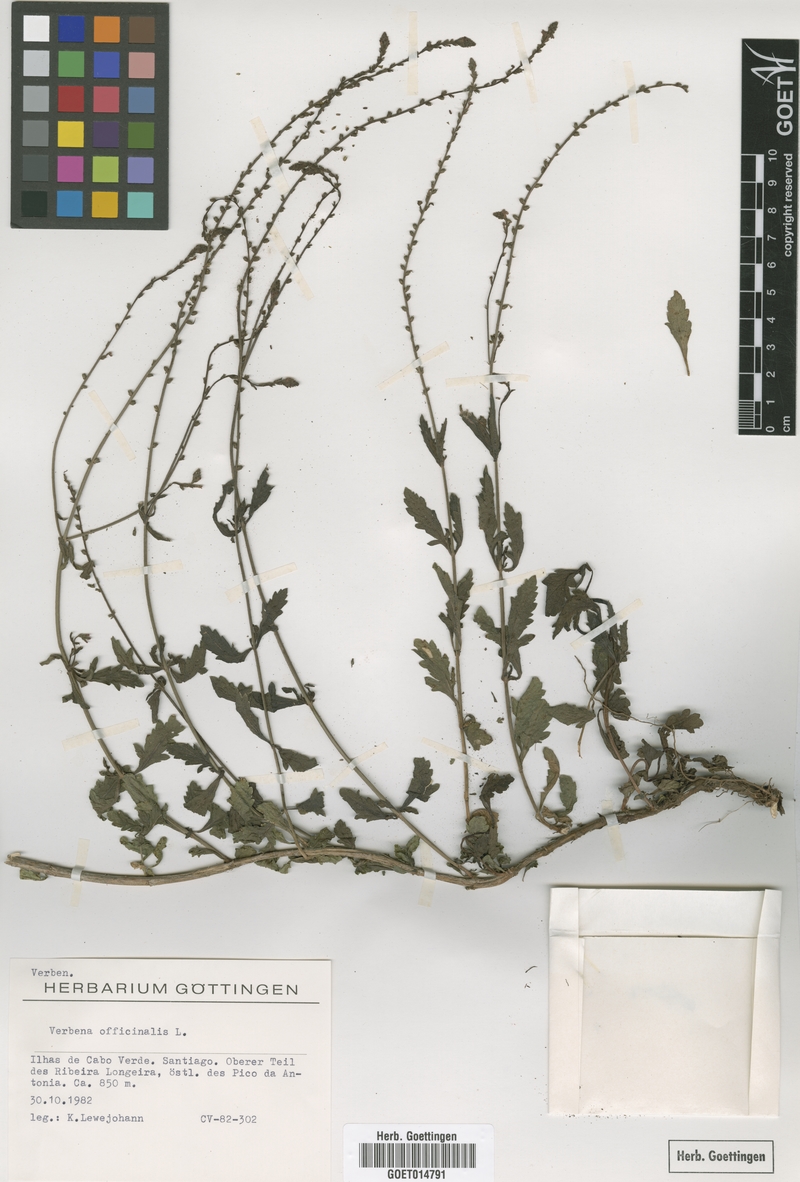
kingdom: Plantae
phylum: Tracheophyta
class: Magnoliopsida
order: Lamiales
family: Verbenaceae
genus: Verbena
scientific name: Verbena officinalis
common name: Vervain
